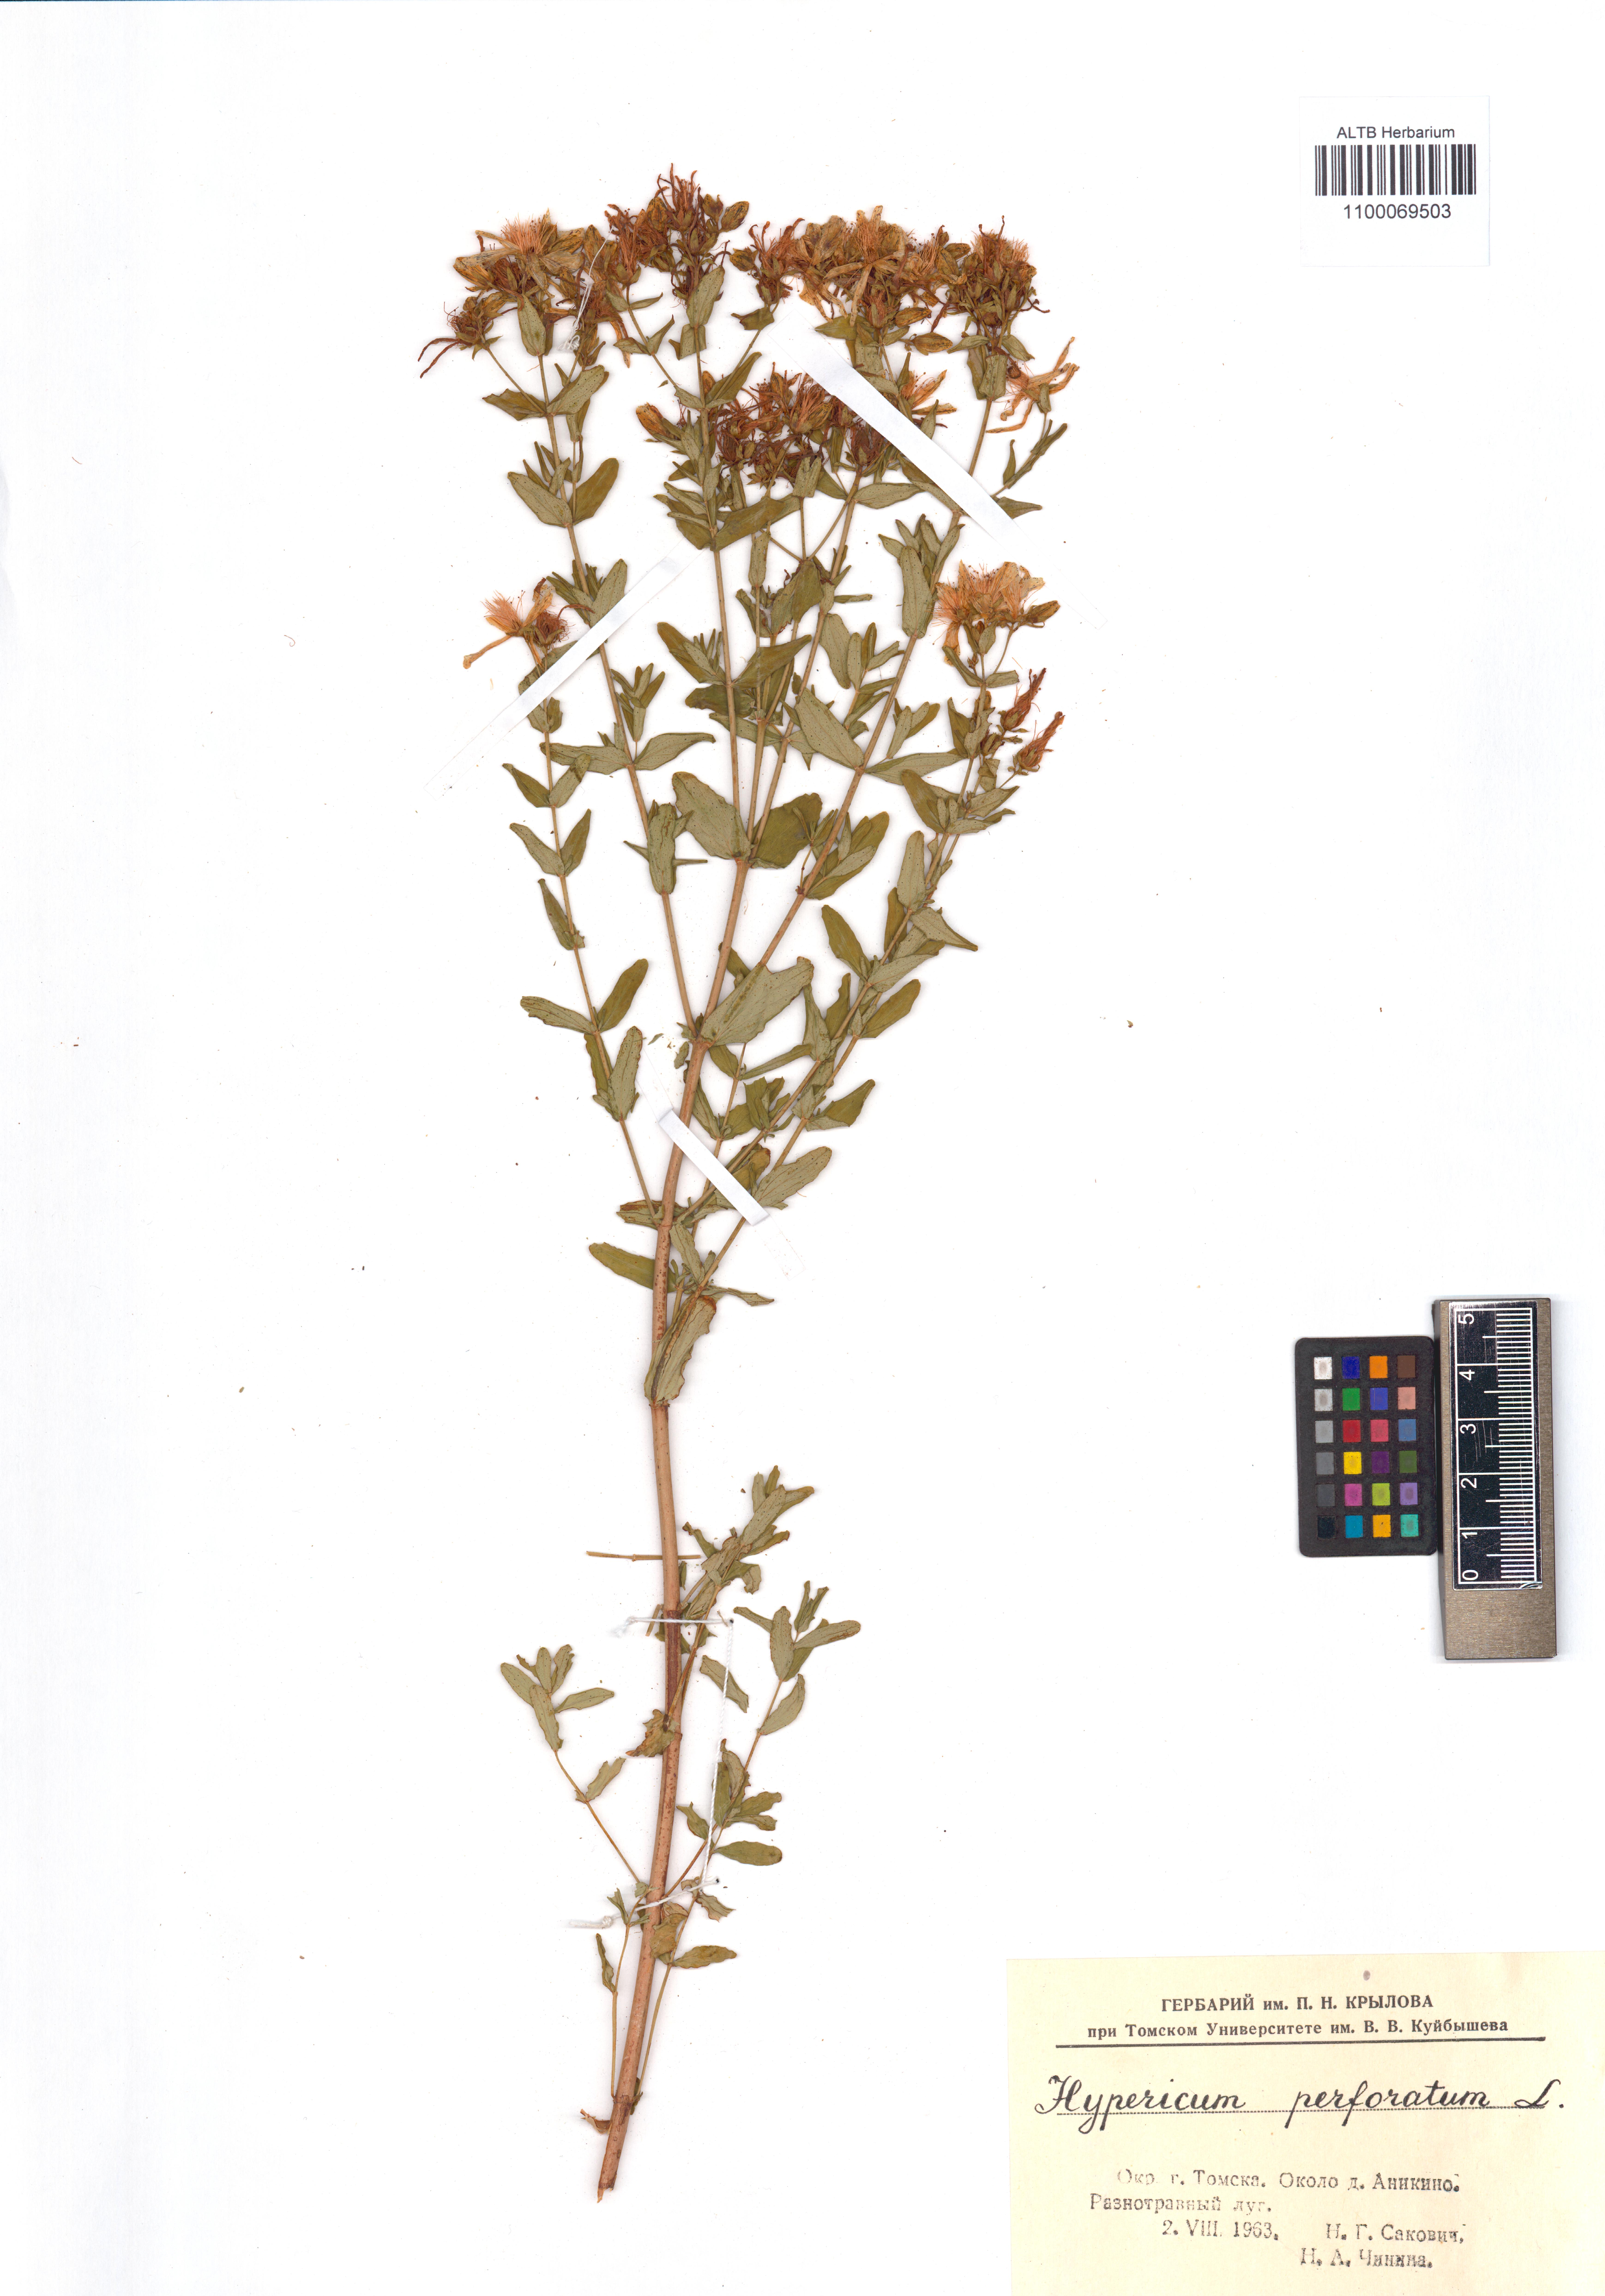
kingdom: Plantae
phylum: Tracheophyta
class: Magnoliopsida
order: Malpighiales
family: Hypericaceae
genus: Hypericum
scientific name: Hypericum perforatum
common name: Common st. johnswort
